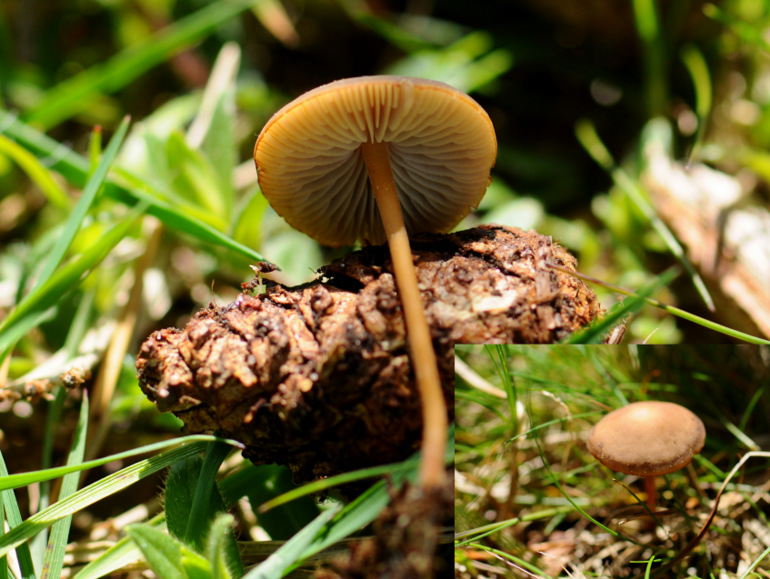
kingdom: Fungi
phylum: Basidiomycota
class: Agaricomycetes
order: Agaricales
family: Physalacriaceae
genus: Strobilurus
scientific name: Strobilurus tenacellus
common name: sommer-koglehat
